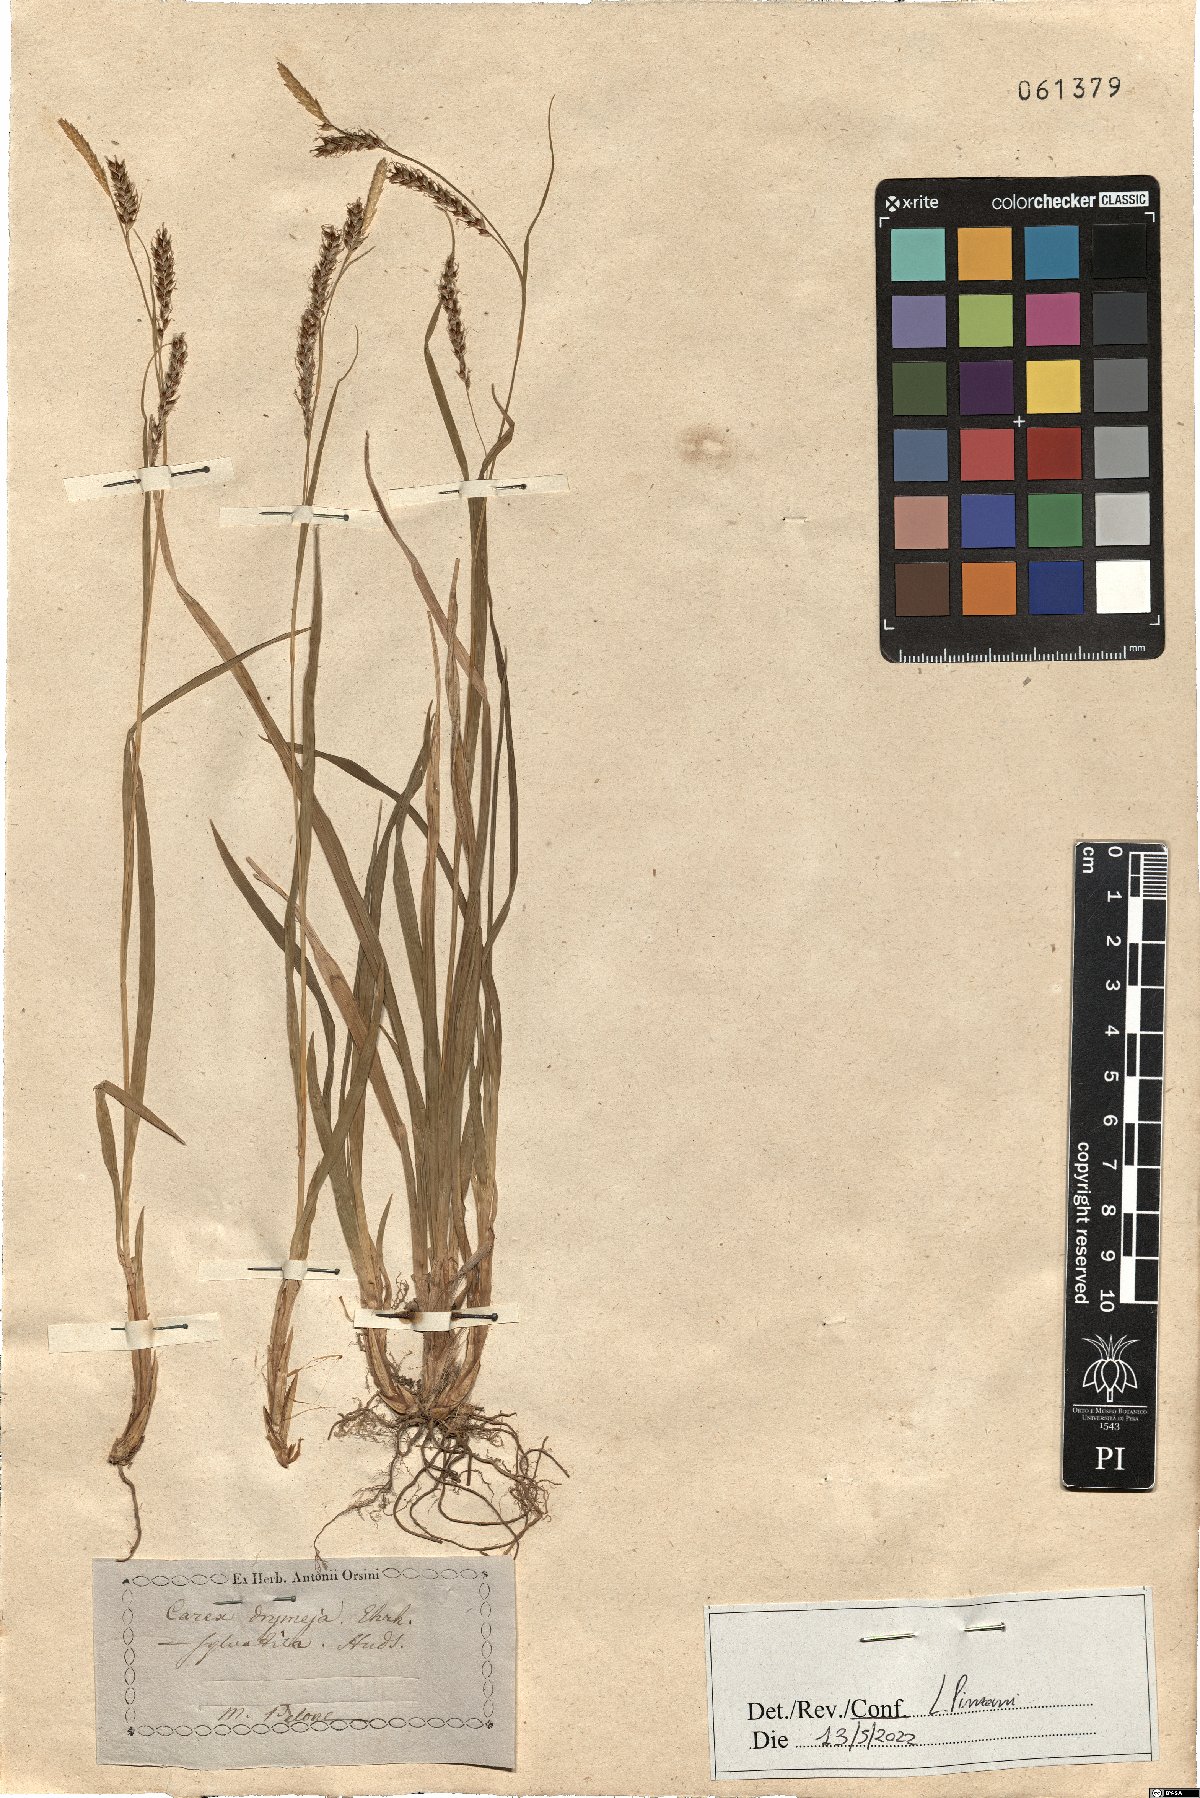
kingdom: Plantae
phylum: Tracheophyta
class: Liliopsida
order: Poales
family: Cyperaceae
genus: Carex
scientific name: Carex sylvatica
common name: Wood-sedge
